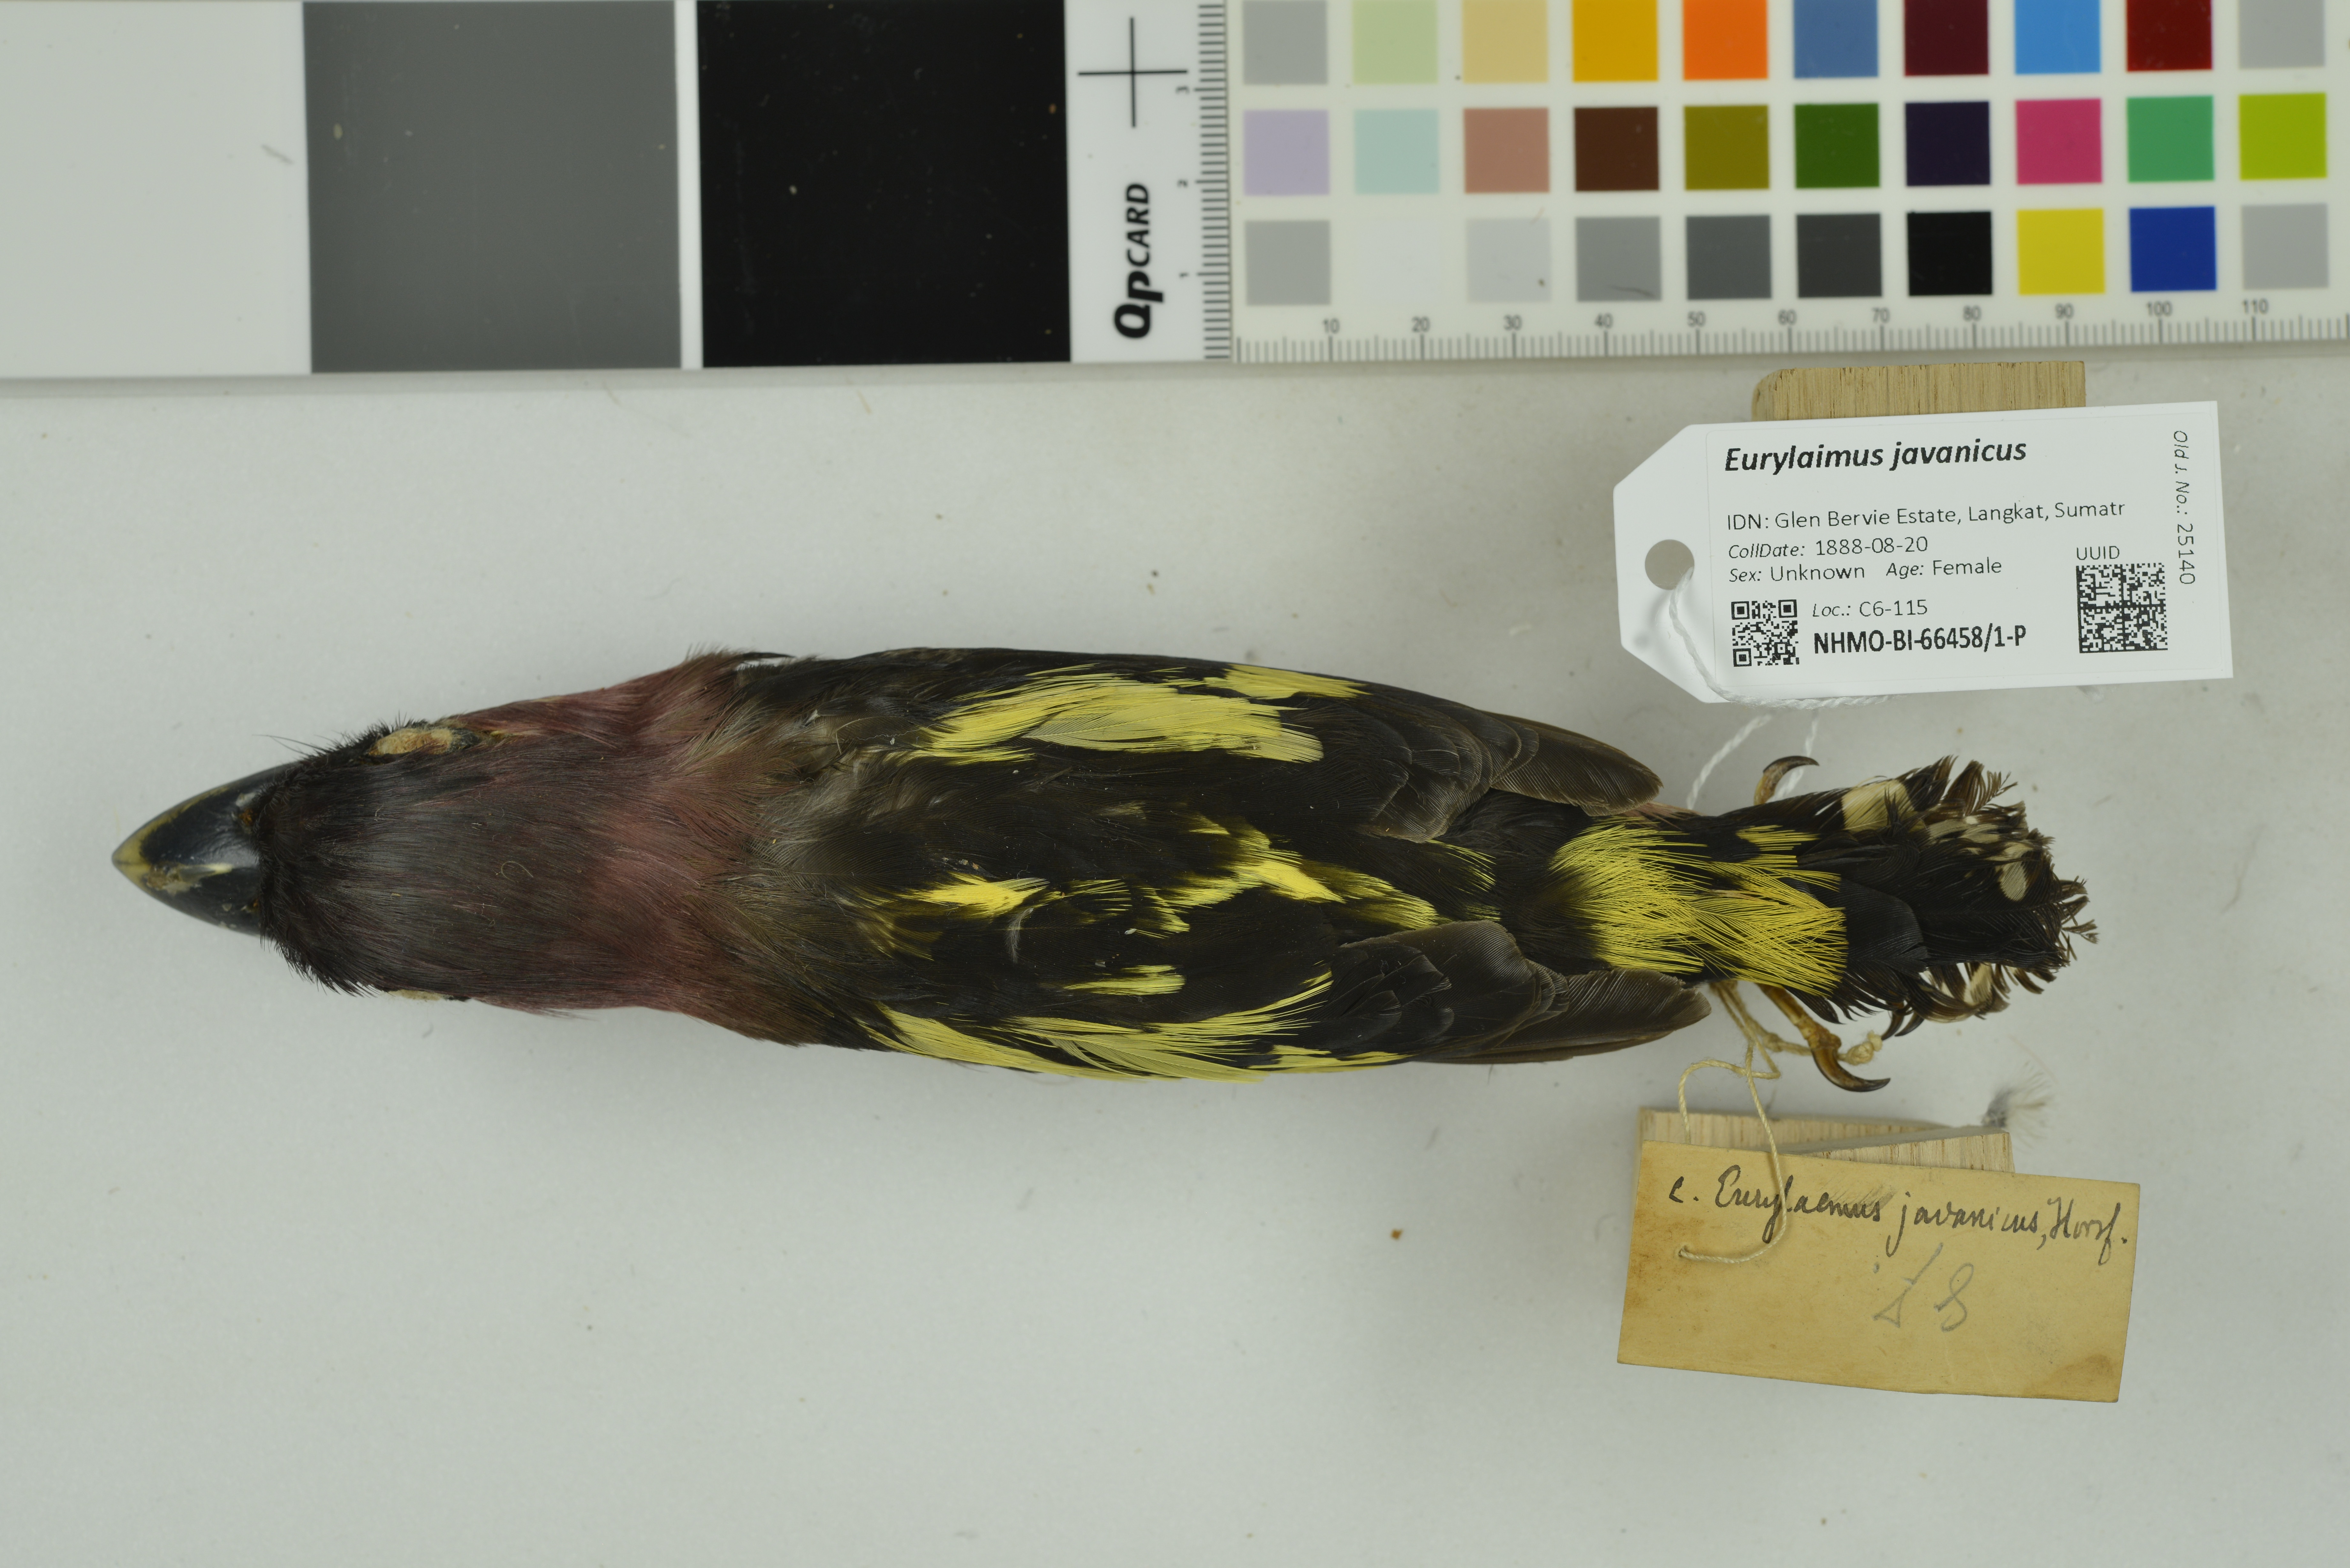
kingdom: Animalia
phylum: Chordata
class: Aves
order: Passeriformes
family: Eurylaimidae
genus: Eurylaimus
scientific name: Eurylaimus javanicus
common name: Banded broadbill
